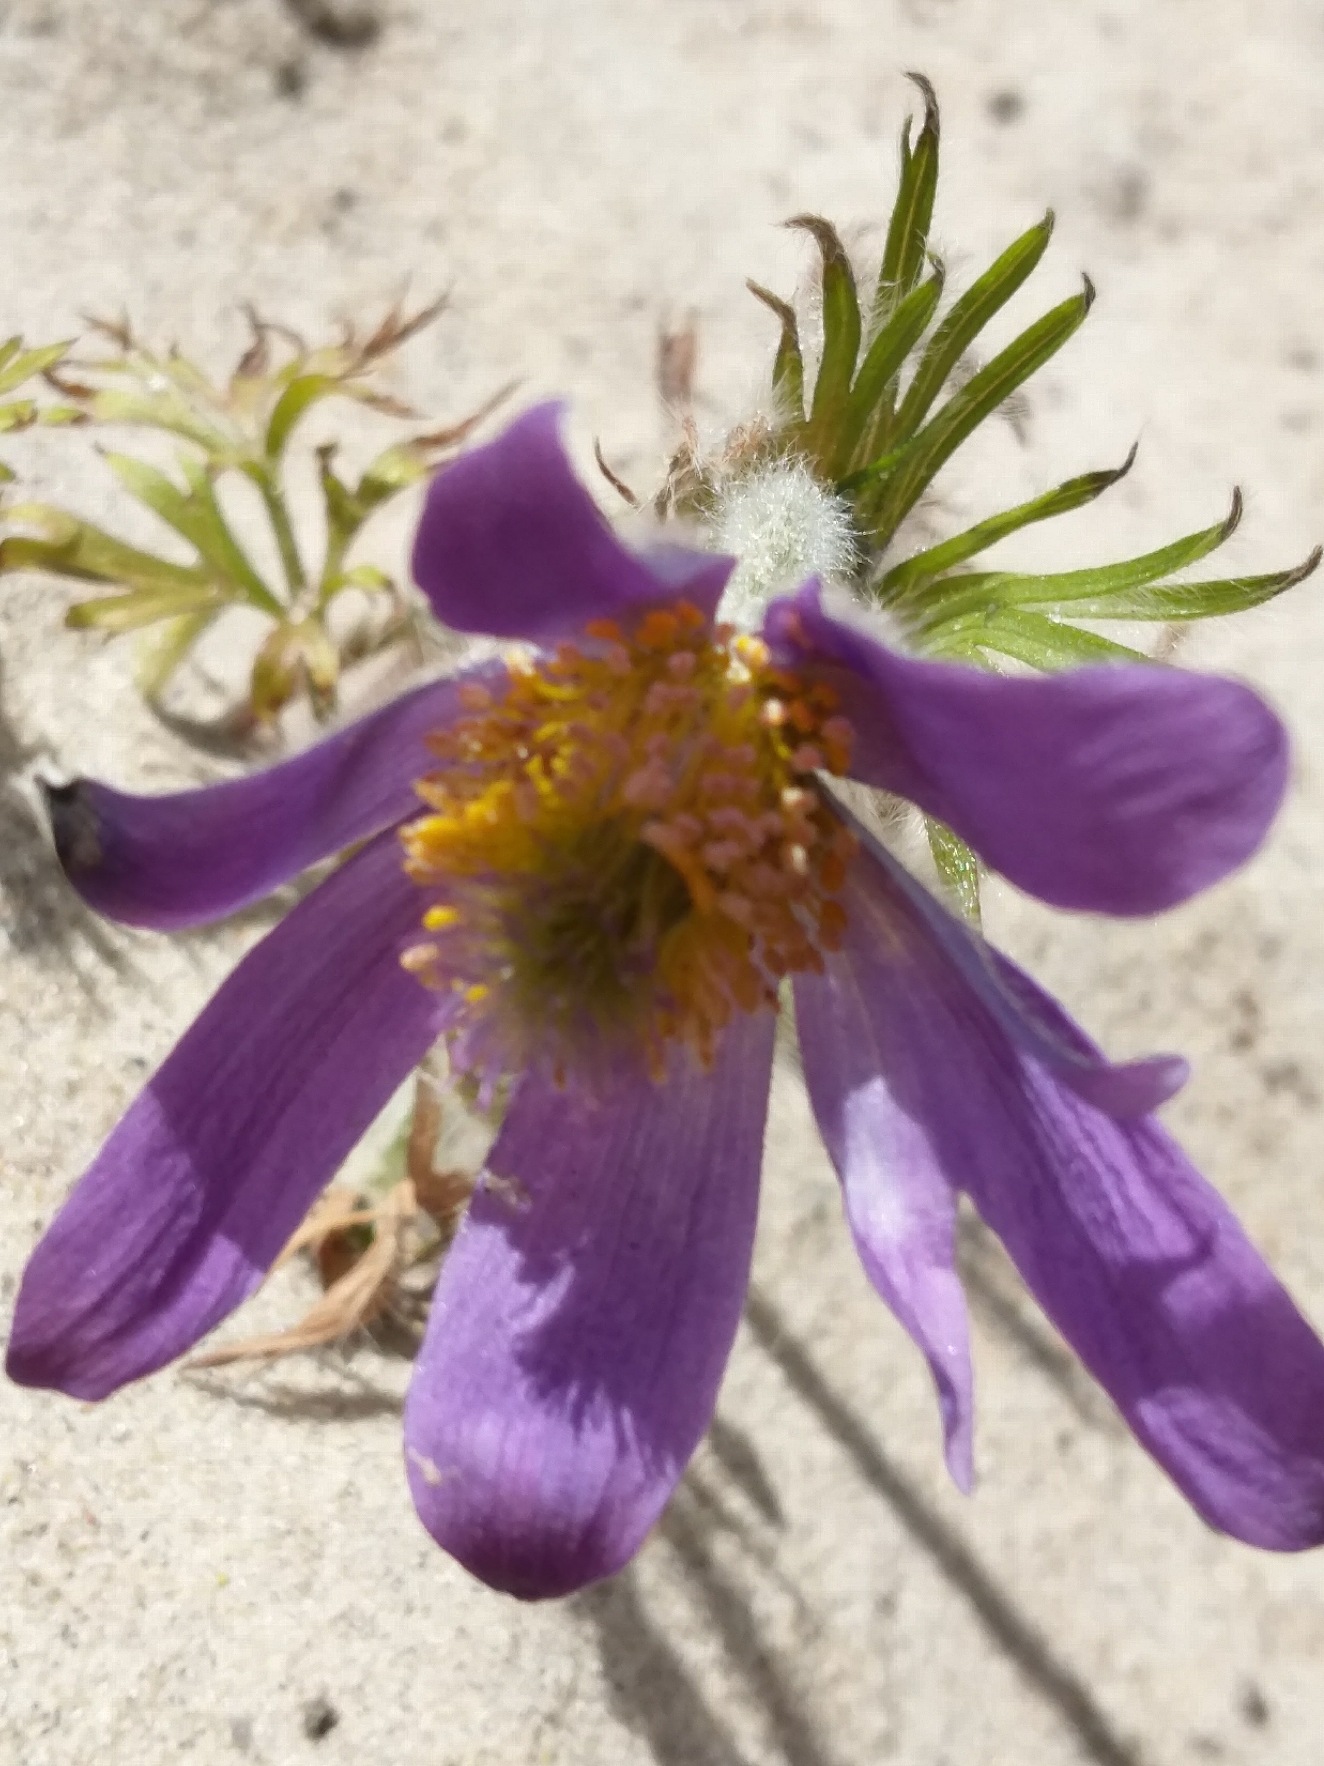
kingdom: Plantae
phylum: Tracheophyta
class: Magnoliopsida
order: Ranunculales
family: Ranunculaceae
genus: Pulsatilla
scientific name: Pulsatilla vulgaris
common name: Opret kobjælde
